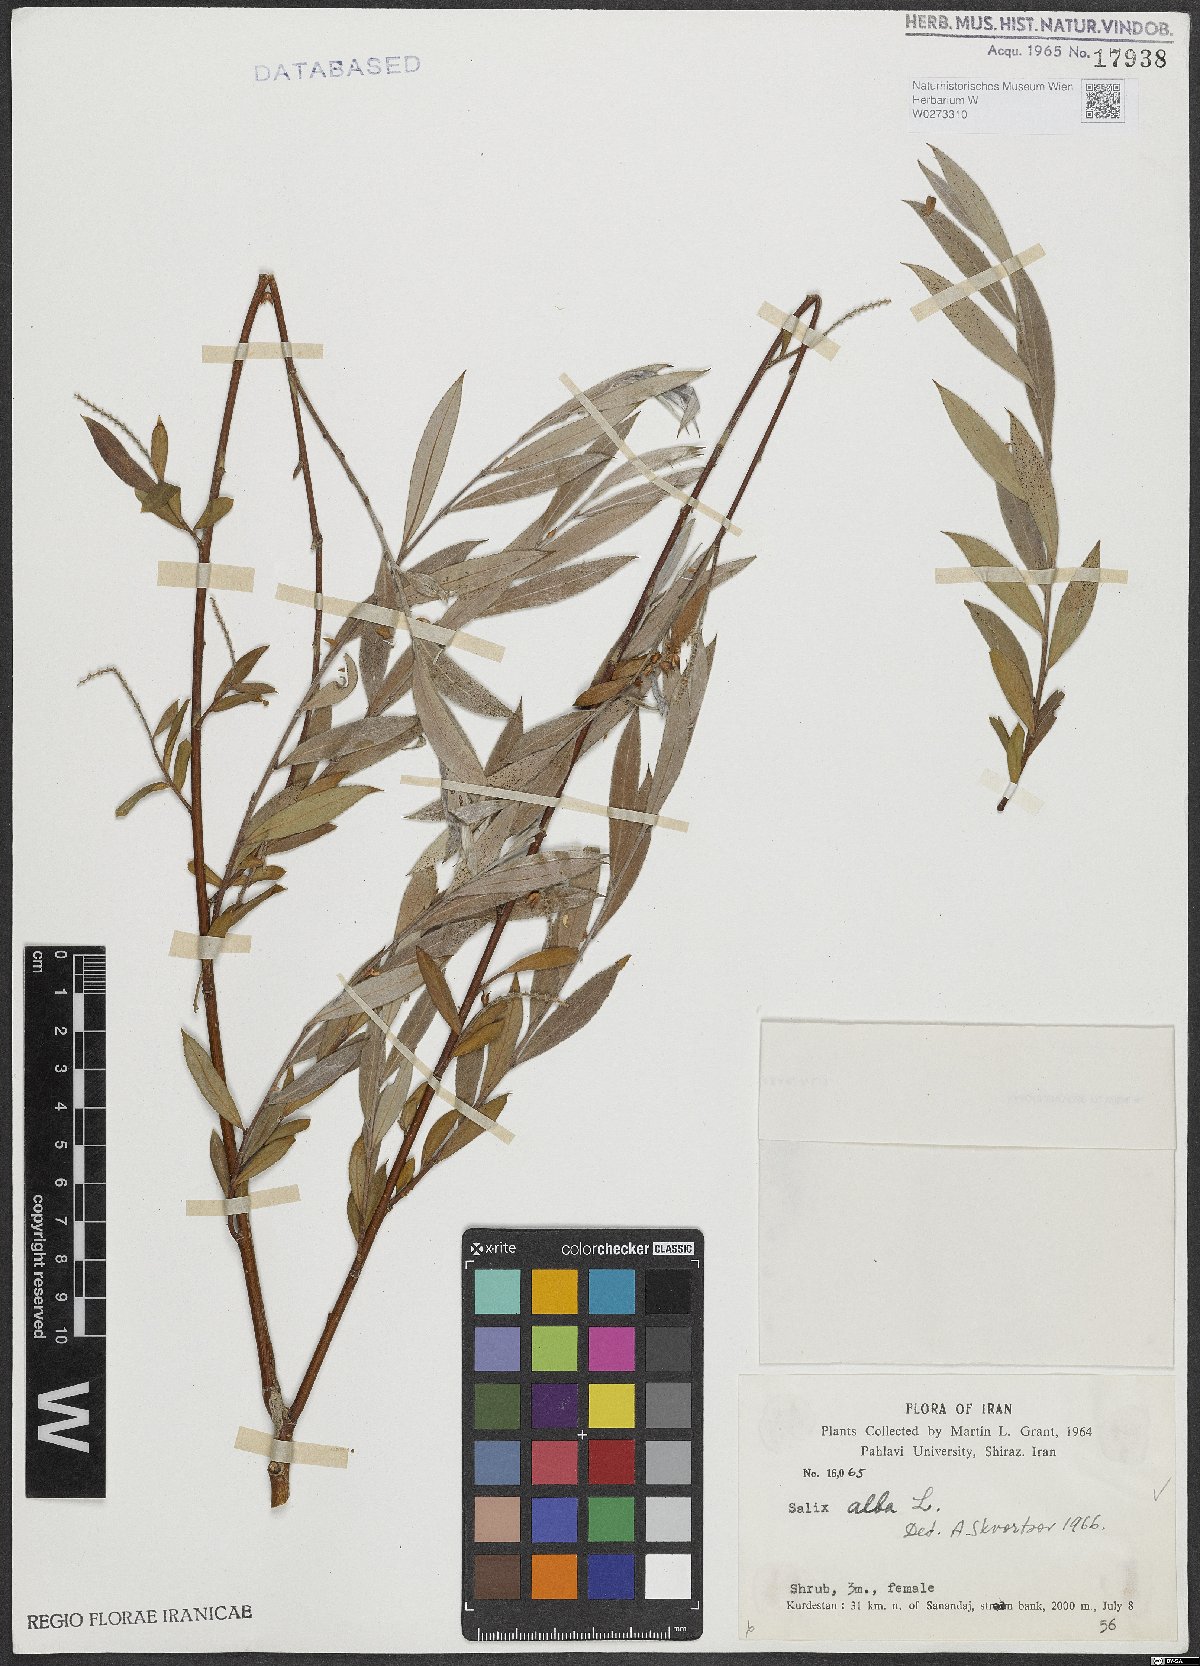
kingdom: Plantae
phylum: Tracheophyta
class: Magnoliopsida
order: Malpighiales
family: Salicaceae
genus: Salix
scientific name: Salix alba
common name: White willow
